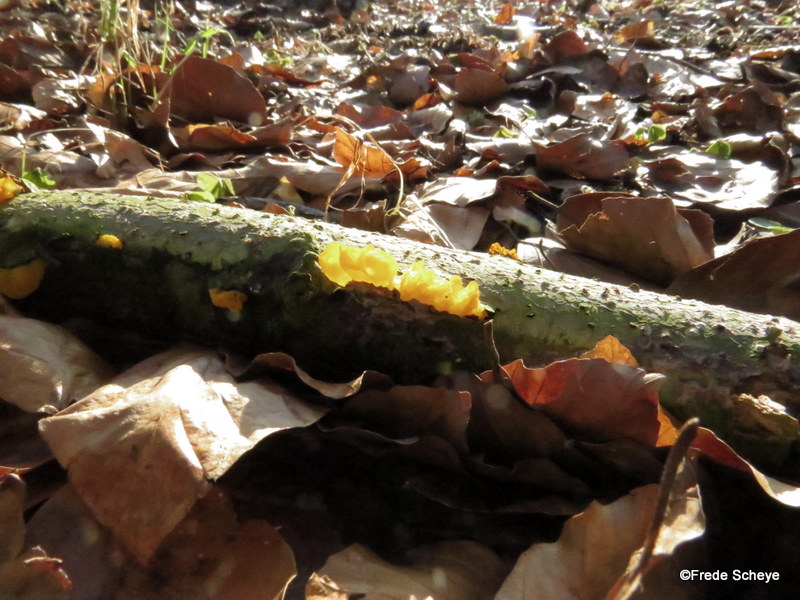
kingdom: Fungi
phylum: Basidiomycota
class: Tremellomycetes
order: Tremellales
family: Tremellaceae
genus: Tremella
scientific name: Tremella mesenterica
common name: gul bævresvamp
